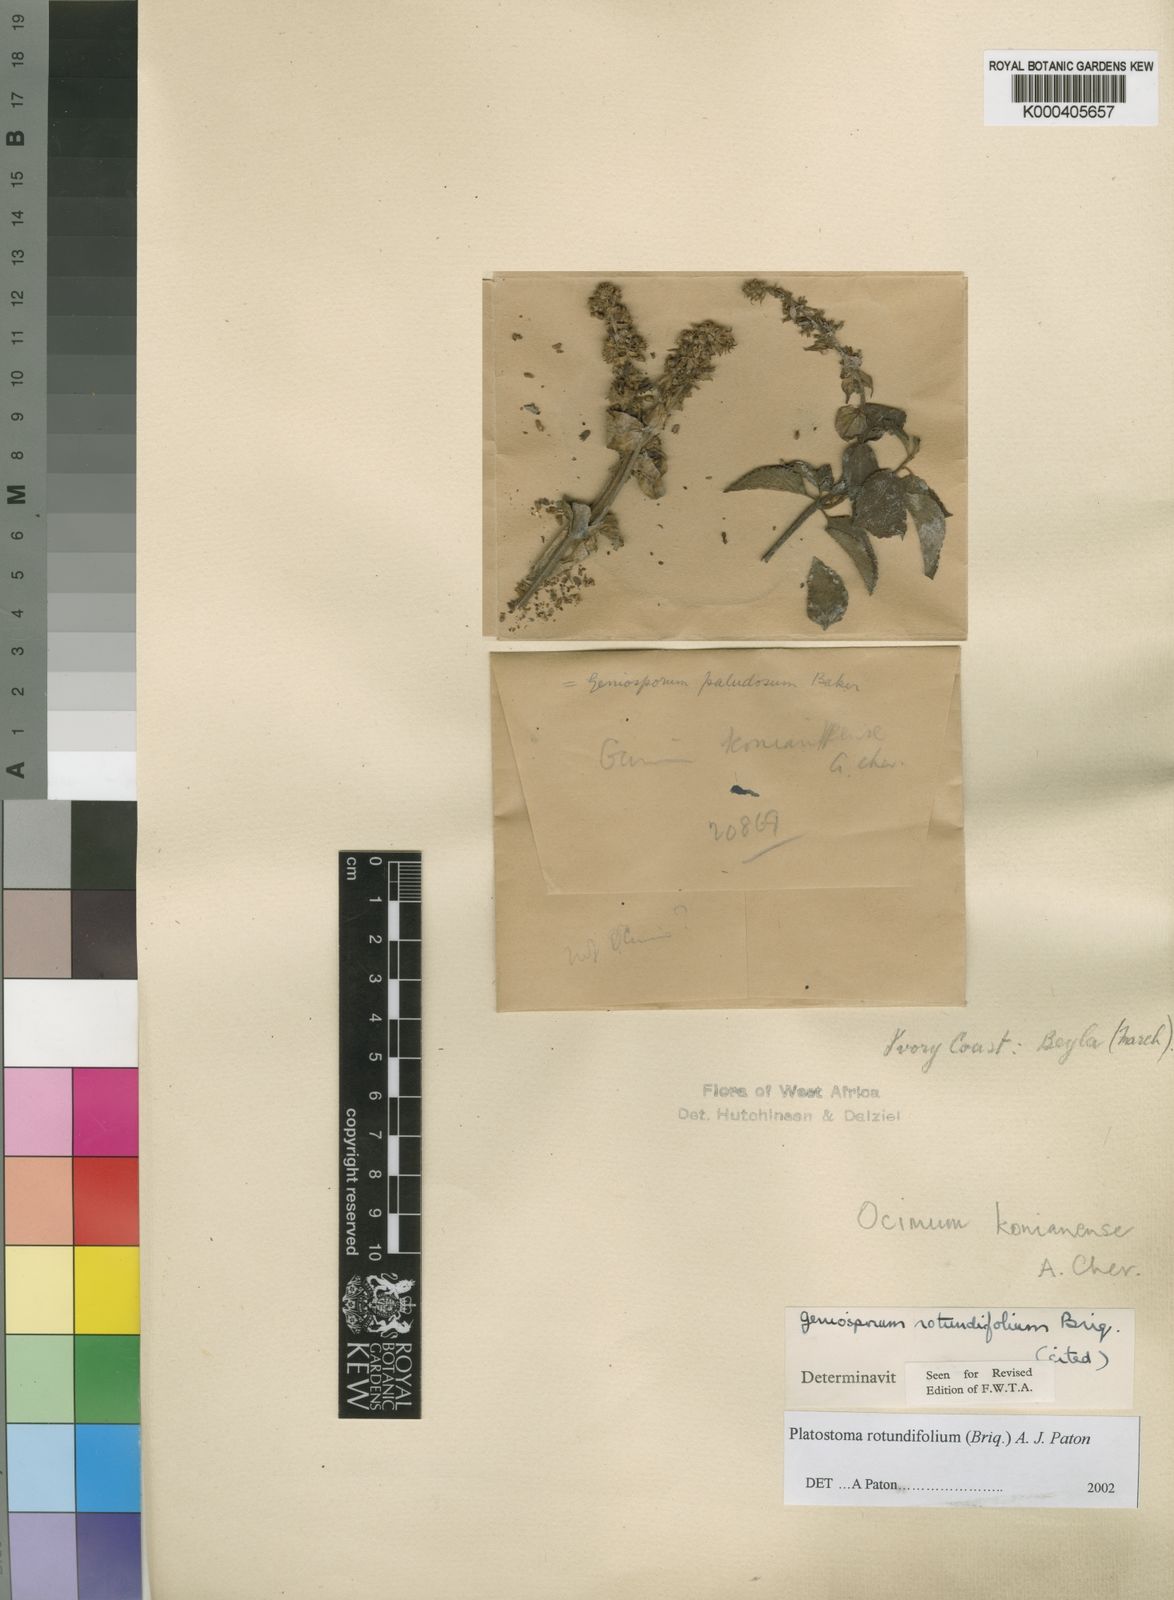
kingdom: Plantae
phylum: Tracheophyta
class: Magnoliopsida
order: Lamiales
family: Lamiaceae
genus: Platostoma
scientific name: Platostoma rotundifolium
